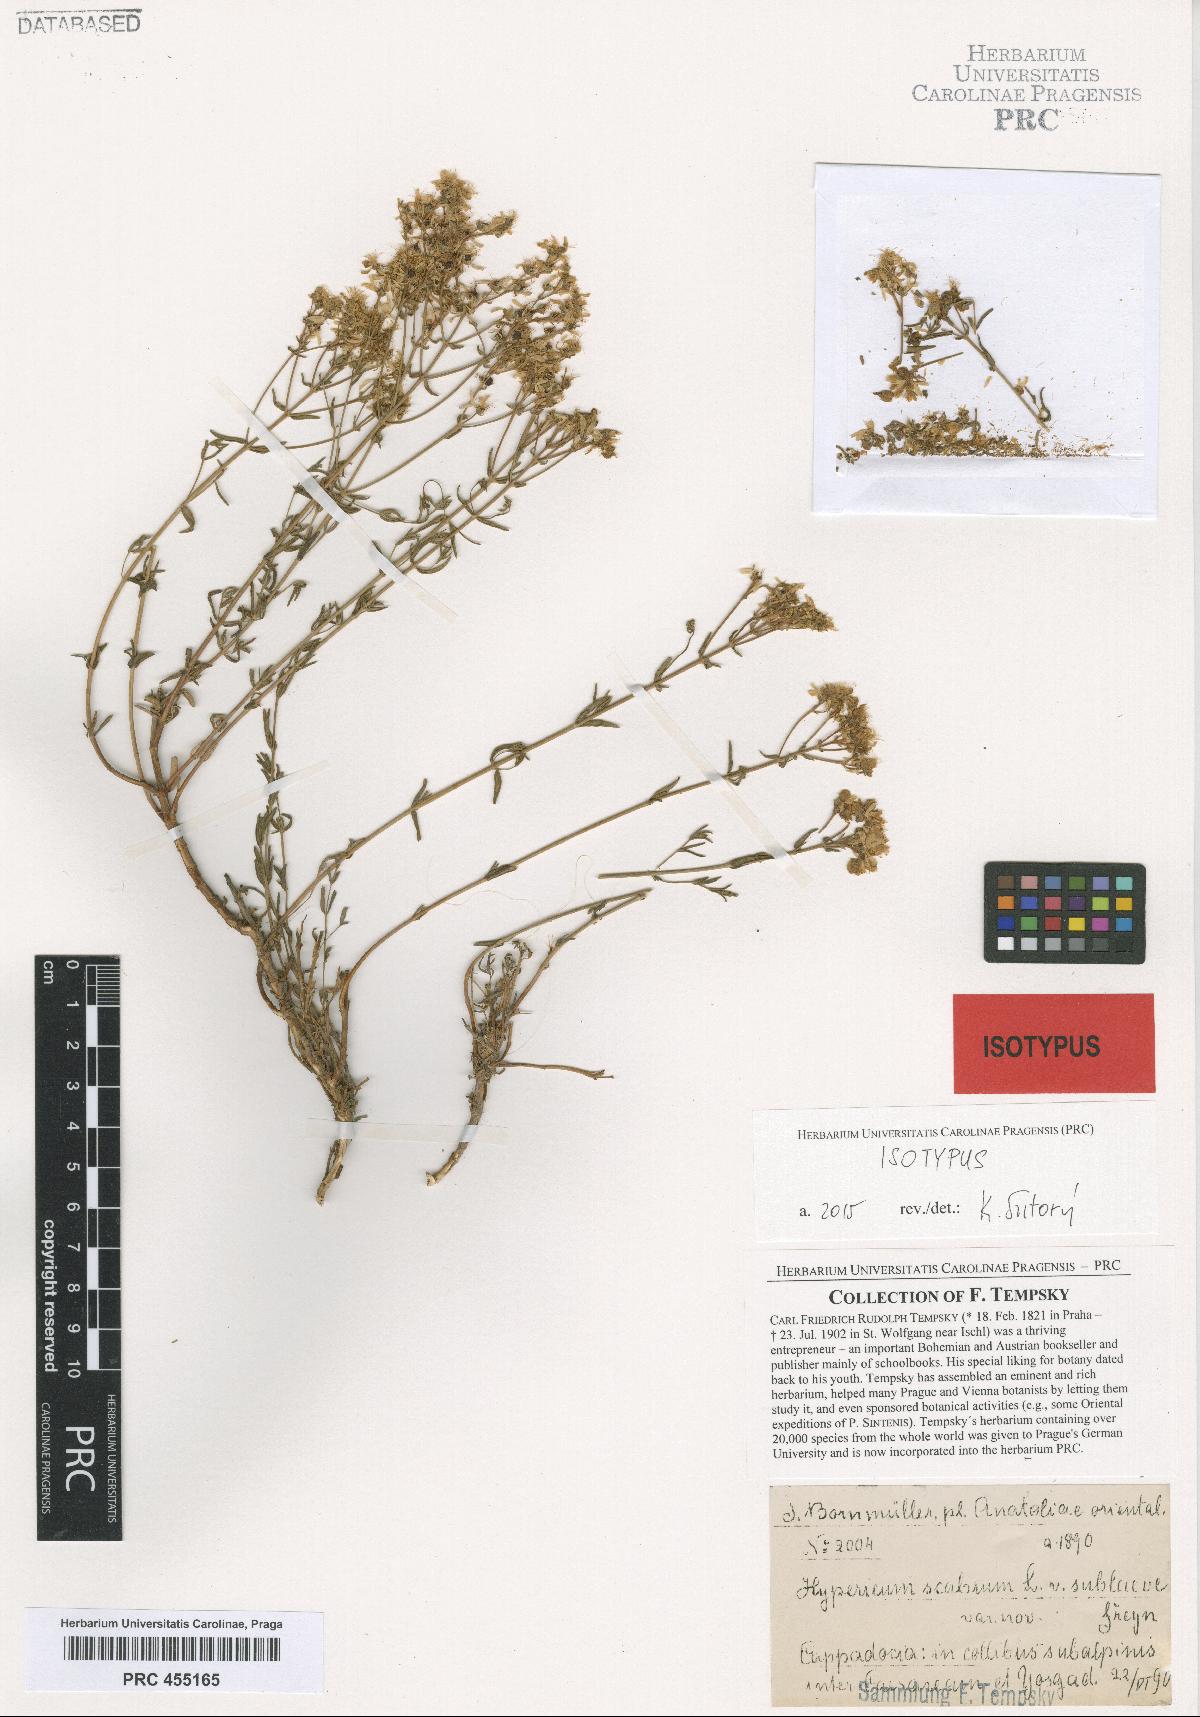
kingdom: Plantae
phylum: Tracheophyta
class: Magnoliopsida
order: Malpighiales
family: Hypericaceae
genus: Hypericum
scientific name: Hypericum scabrum
